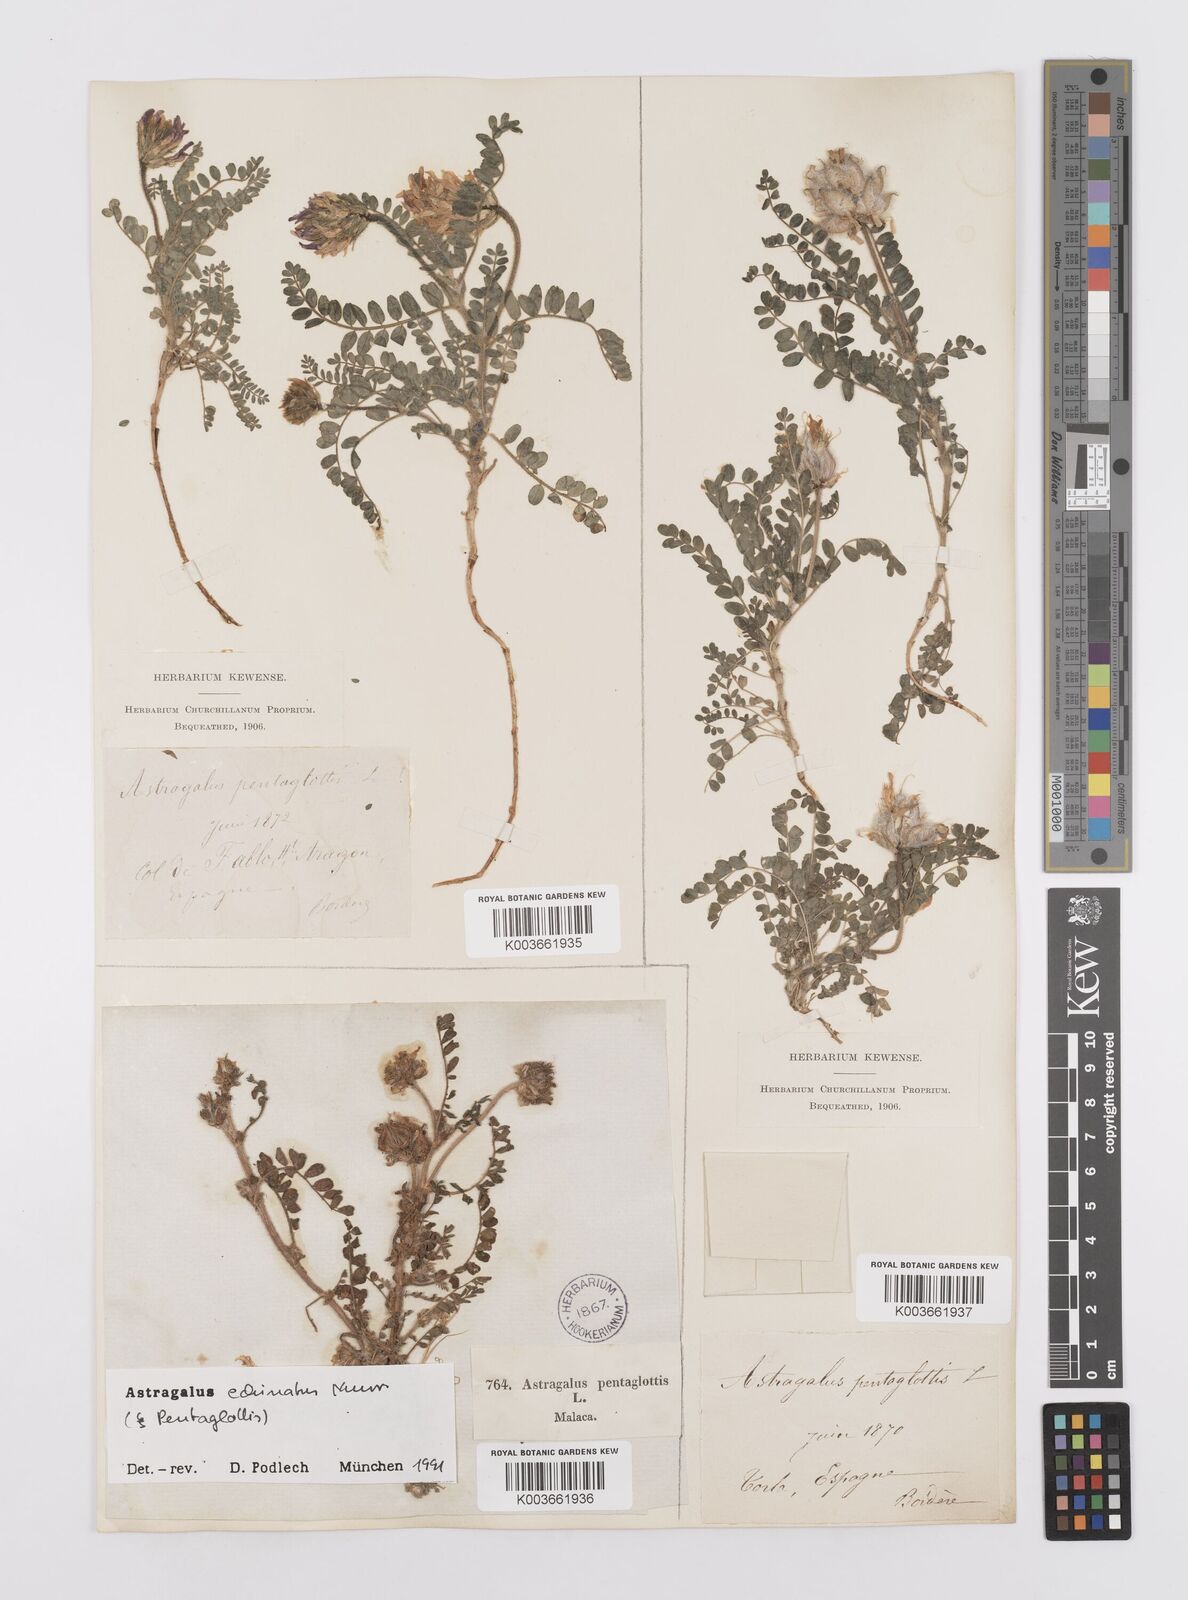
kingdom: Plantae
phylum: Tracheophyta
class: Magnoliopsida
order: Fabales
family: Fabaceae
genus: Astragalus
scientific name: Astragalus echinatus
